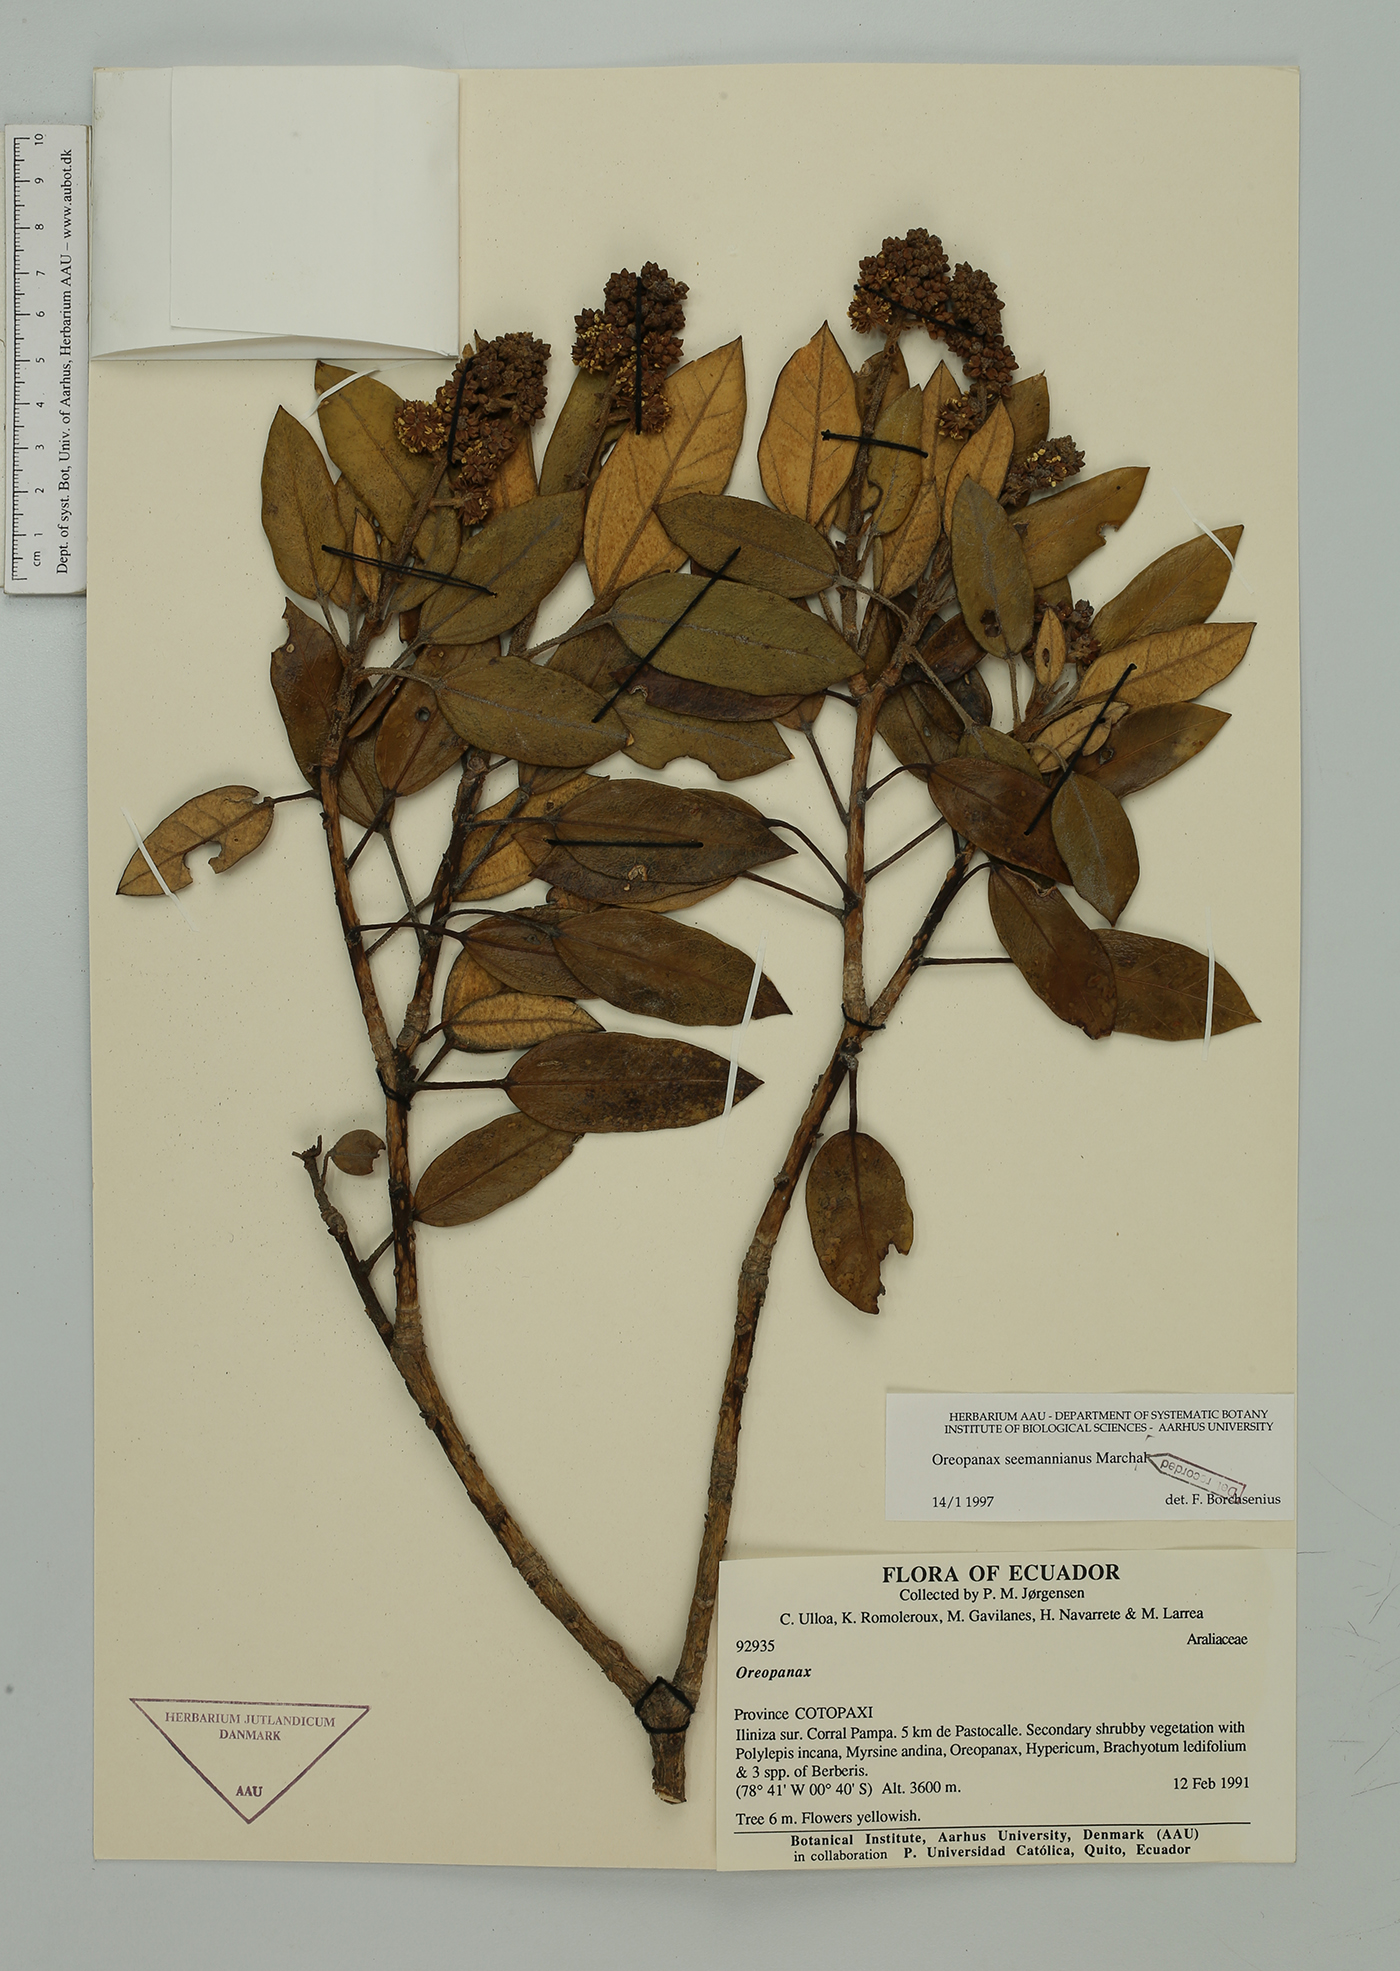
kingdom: Plantae
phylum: Tracheophyta
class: Magnoliopsida
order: Apiales
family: Araliaceae
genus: Oreopanax
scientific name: Oreopanax seemannianus
